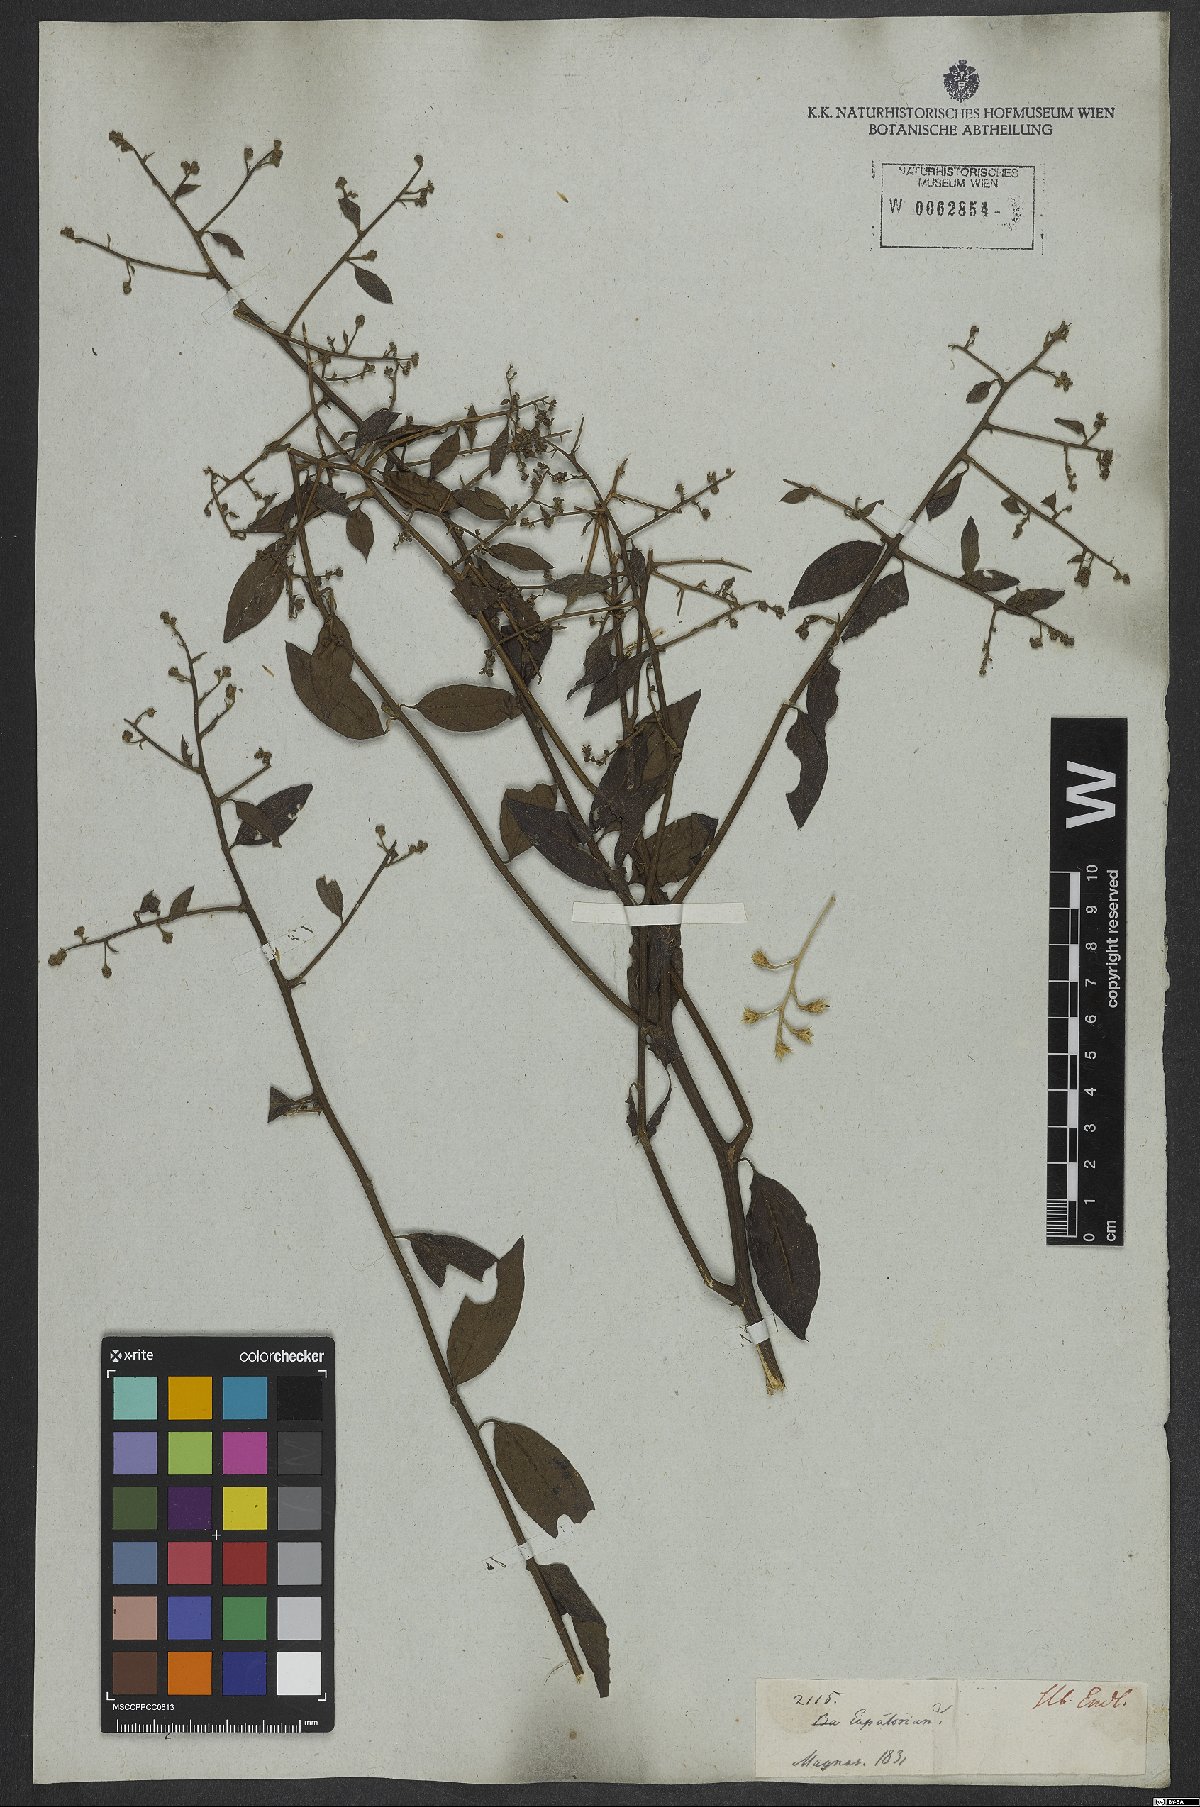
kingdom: Plantae
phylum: Tracheophyta
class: Magnoliopsida
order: Asterales
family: Asteraceae
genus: Baccharis
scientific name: Baccharis
